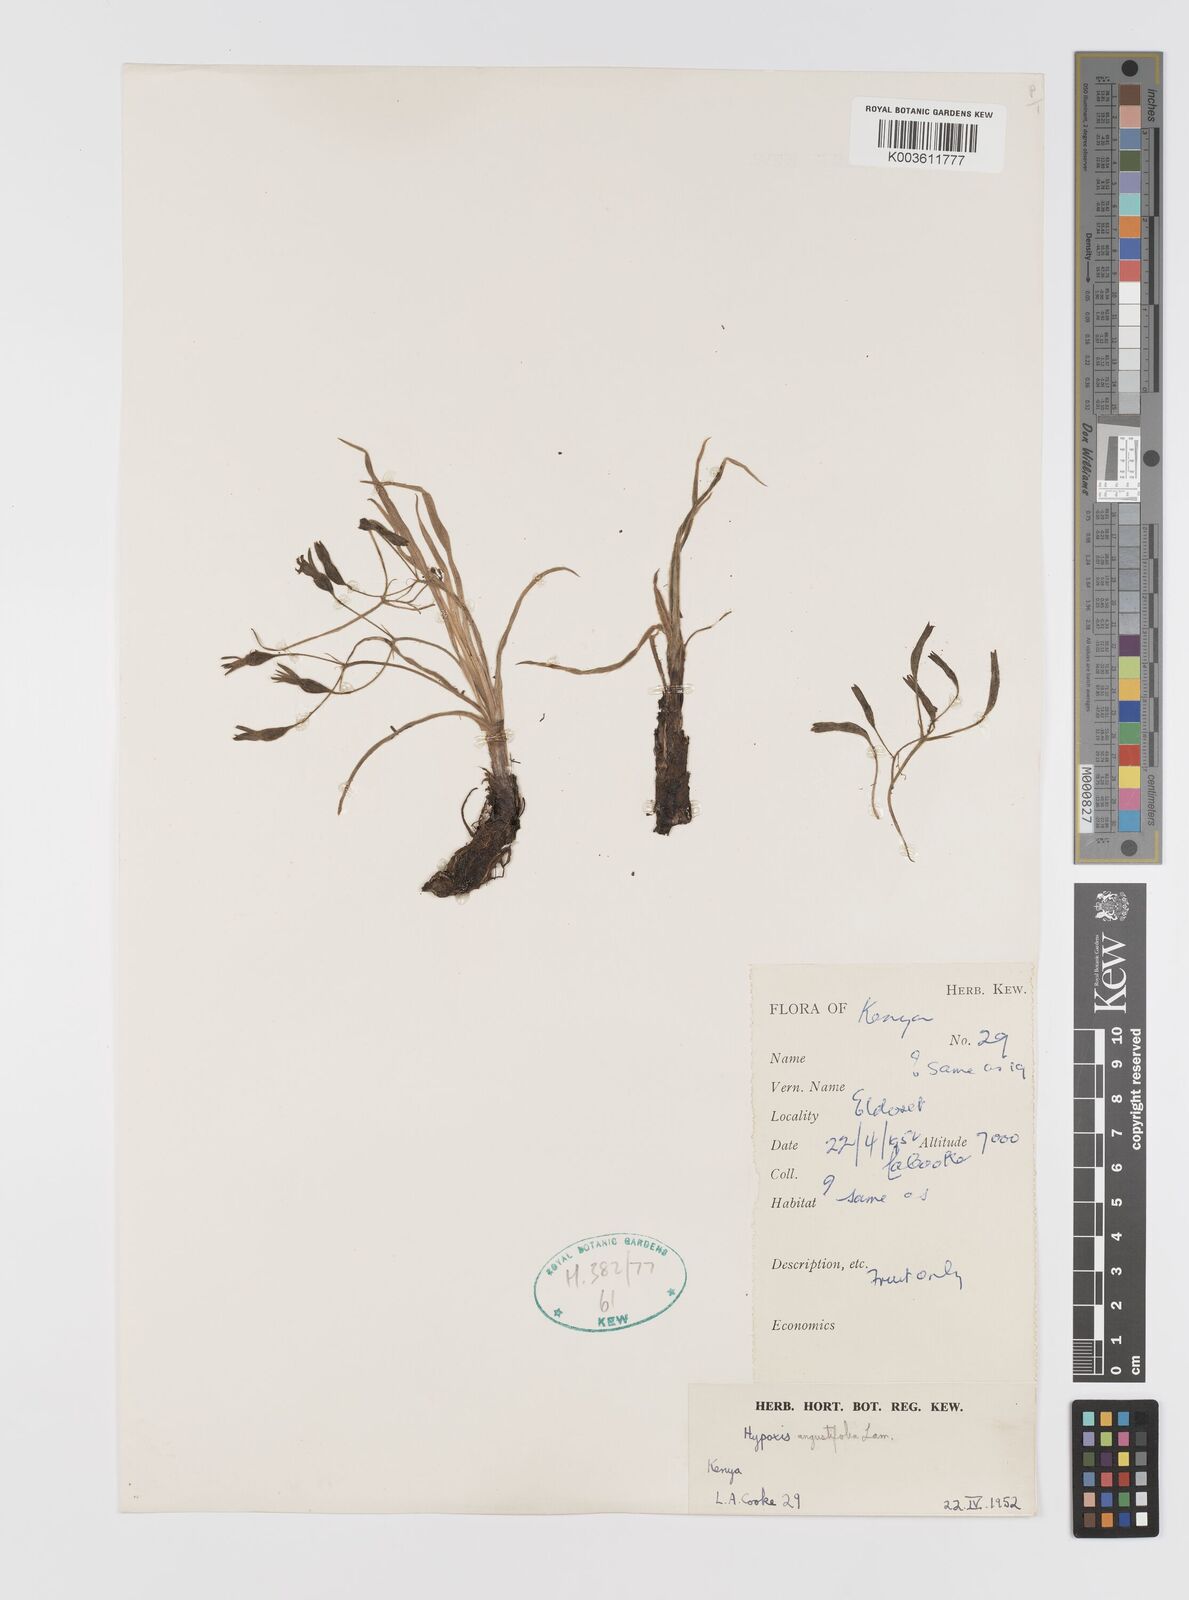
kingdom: Plantae
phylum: Tracheophyta
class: Liliopsida
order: Asparagales
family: Hypoxidaceae
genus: Hypoxis
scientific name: Hypoxis angustifolia
